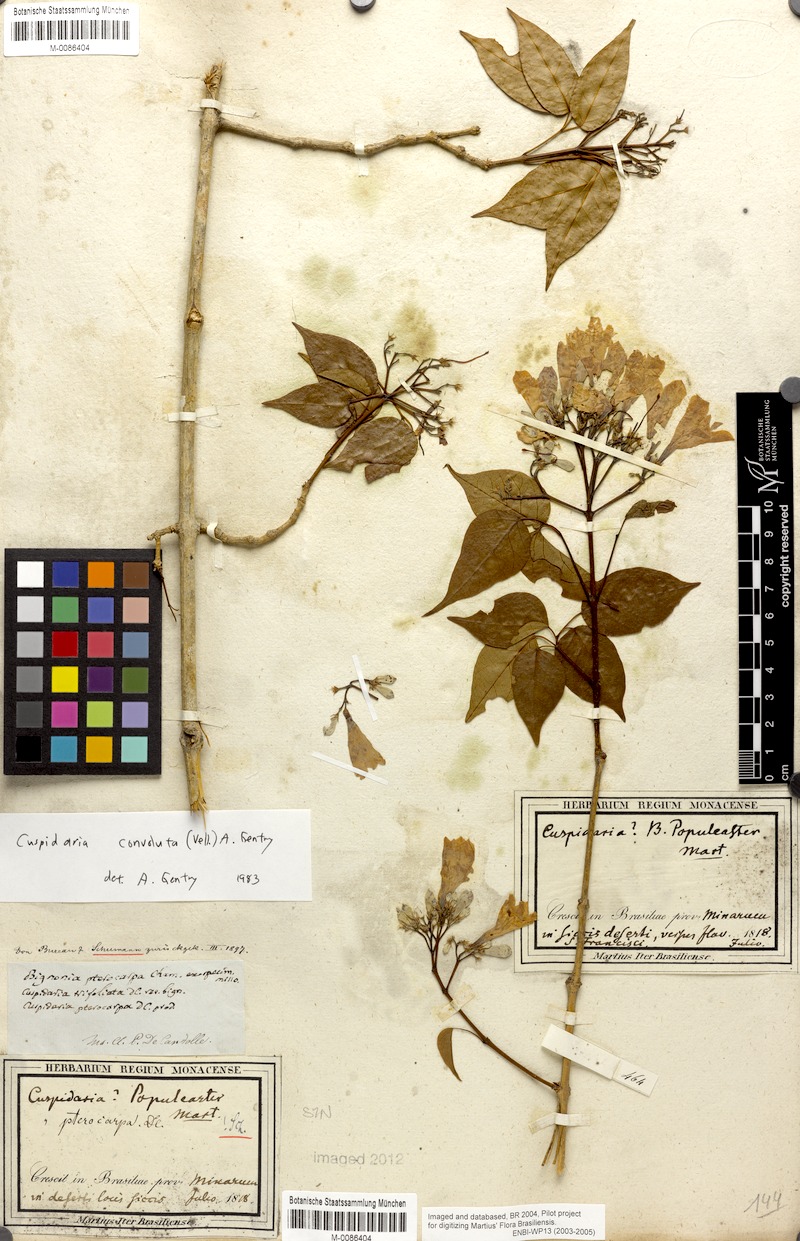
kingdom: Plantae
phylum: Tracheophyta
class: Magnoliopsida
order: Lamiales
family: Bignoniaceae
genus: Cuspidaria
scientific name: Cuspidaria convoluta
